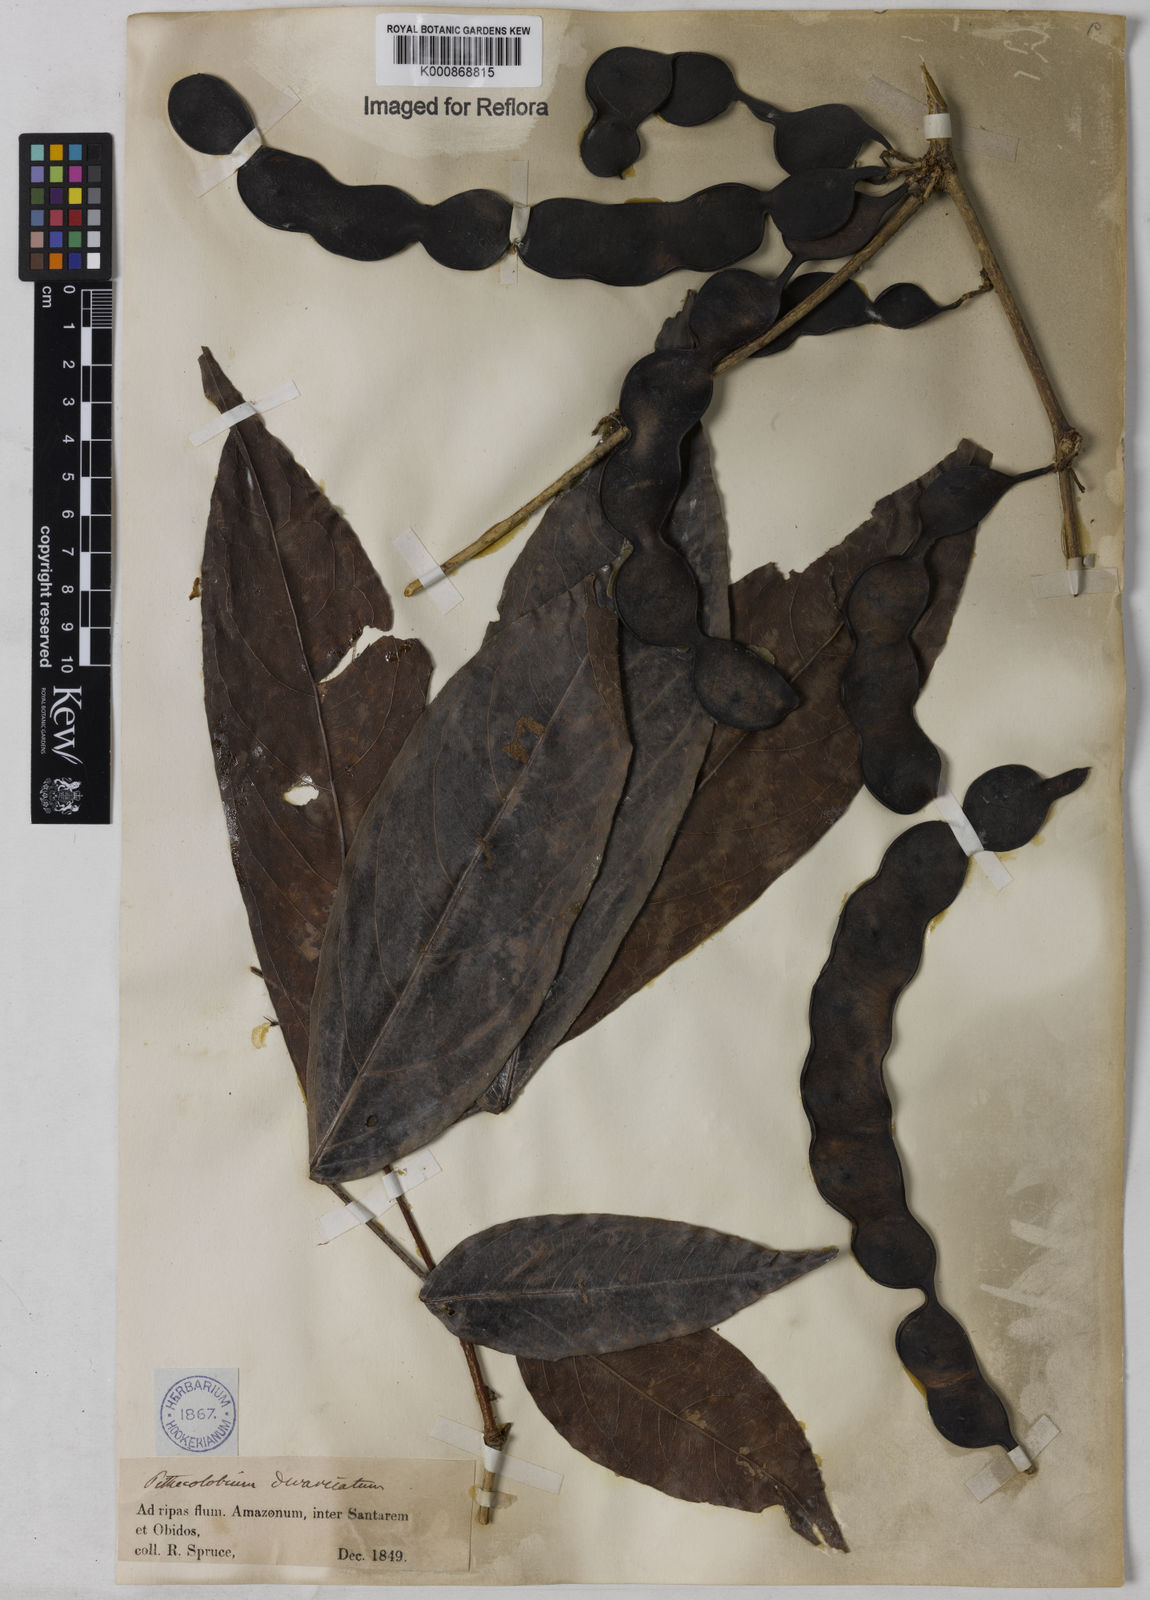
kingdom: Plantae
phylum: Tracheophyta
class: Magnoliopsida
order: Fabales
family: Fabaceae
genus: Zygia
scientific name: Zygia cataractae
